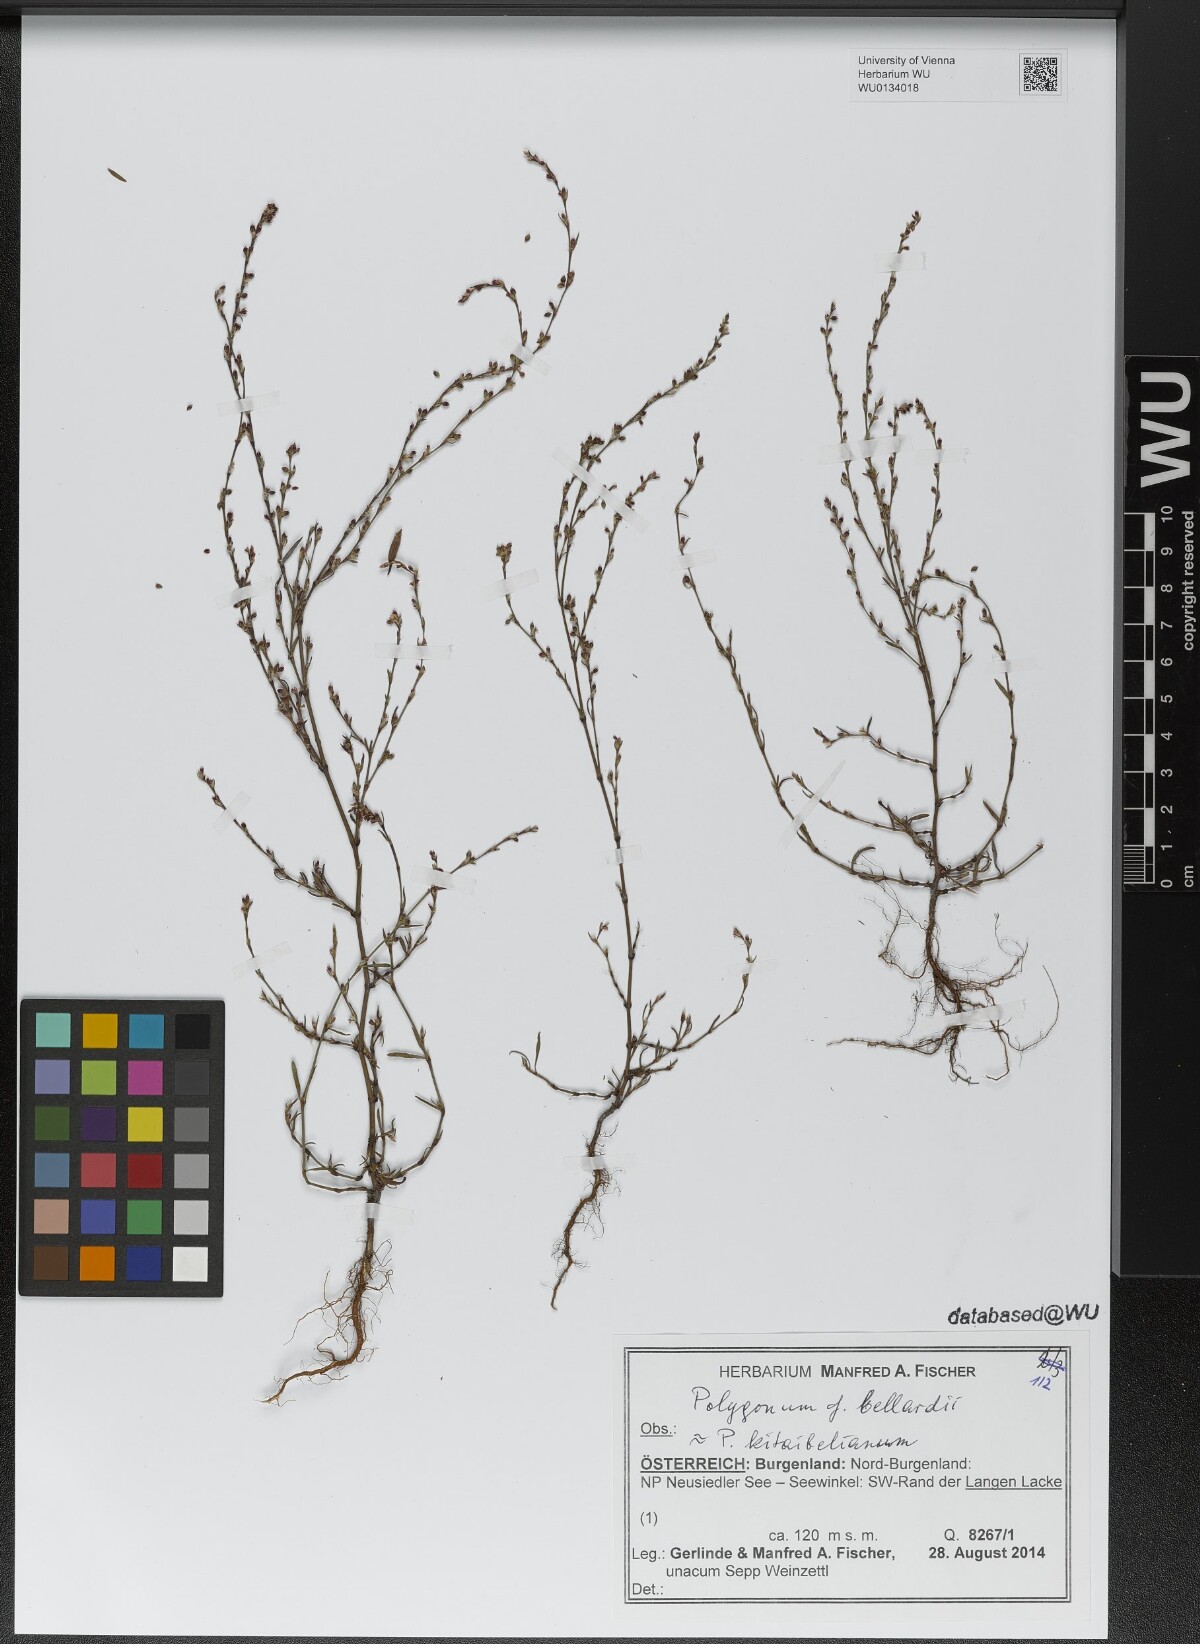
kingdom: Plantae
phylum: Tracheophyta
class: Magnoliopsida
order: Caryophyllales
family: Polygonaceae
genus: Polygonum
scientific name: Polygonum bellardii
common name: Narrowleaf knotweed
